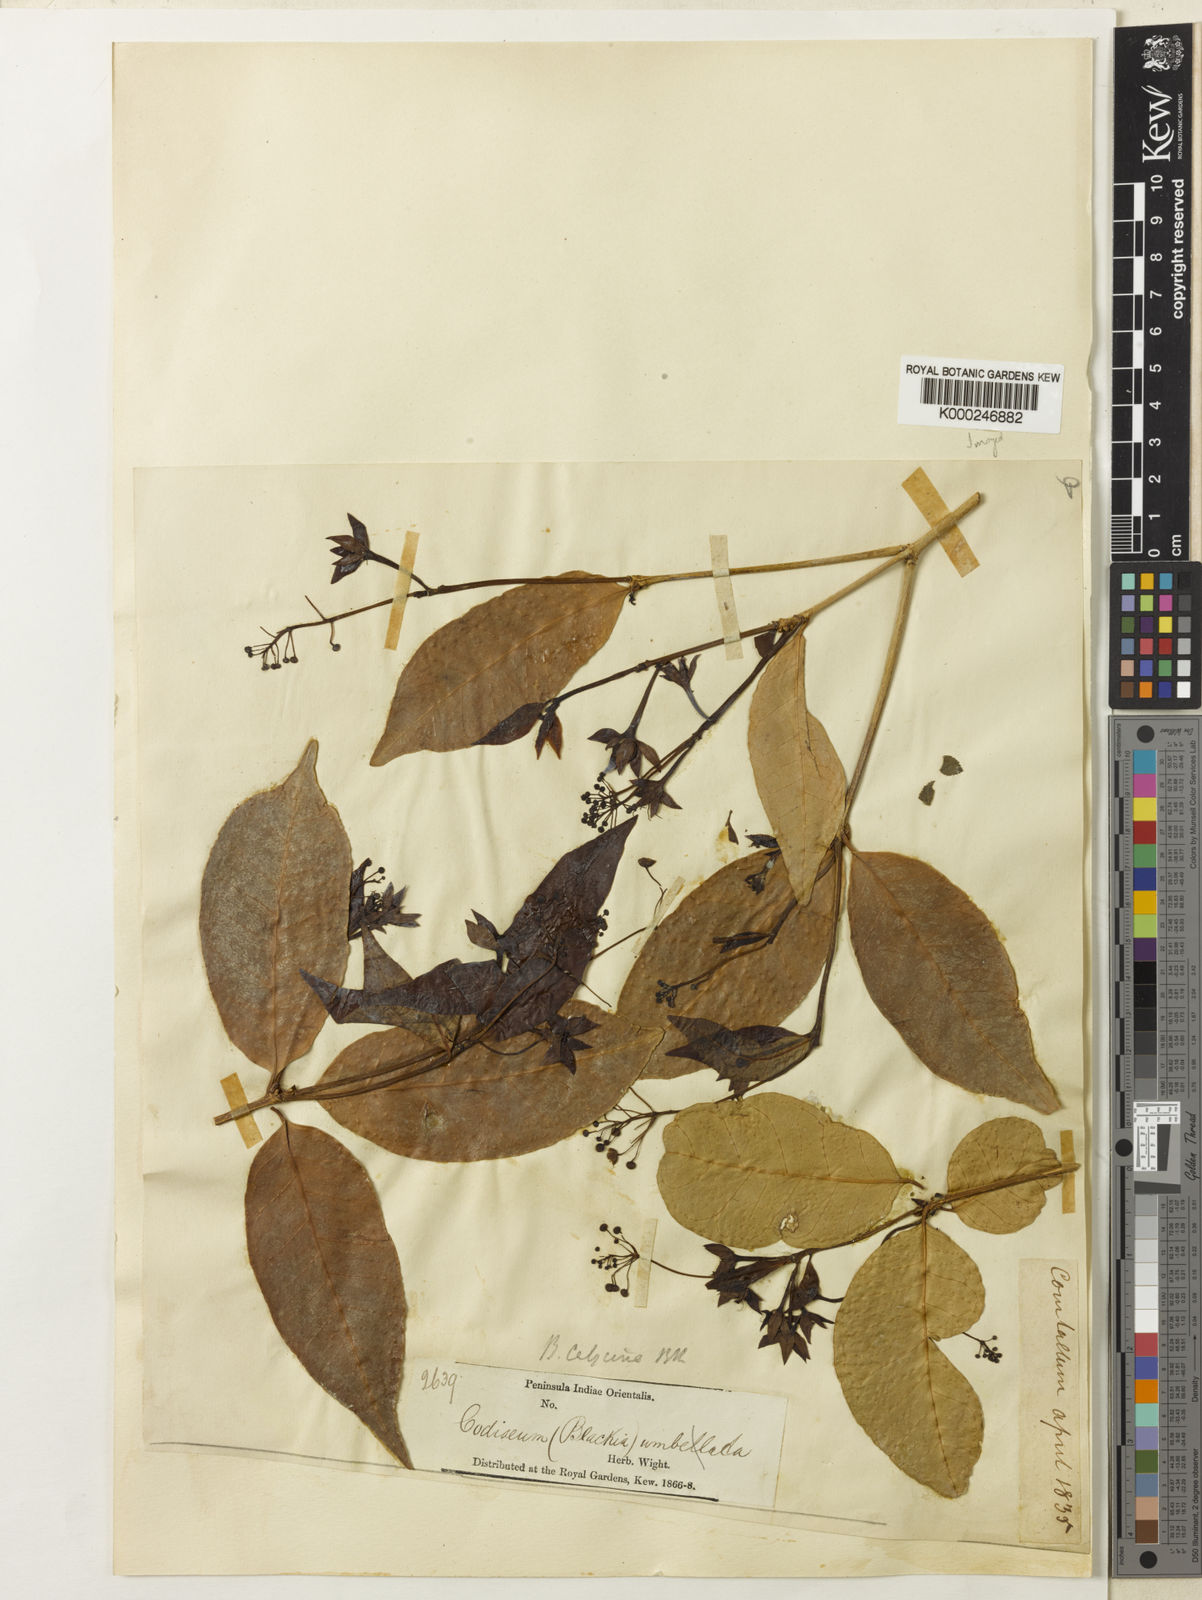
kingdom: Plantae
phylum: Tracheophyta
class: Magnoliopsida
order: Malpighiales
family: Euphorbiaceae
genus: Blachia
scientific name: Blachia calycina
